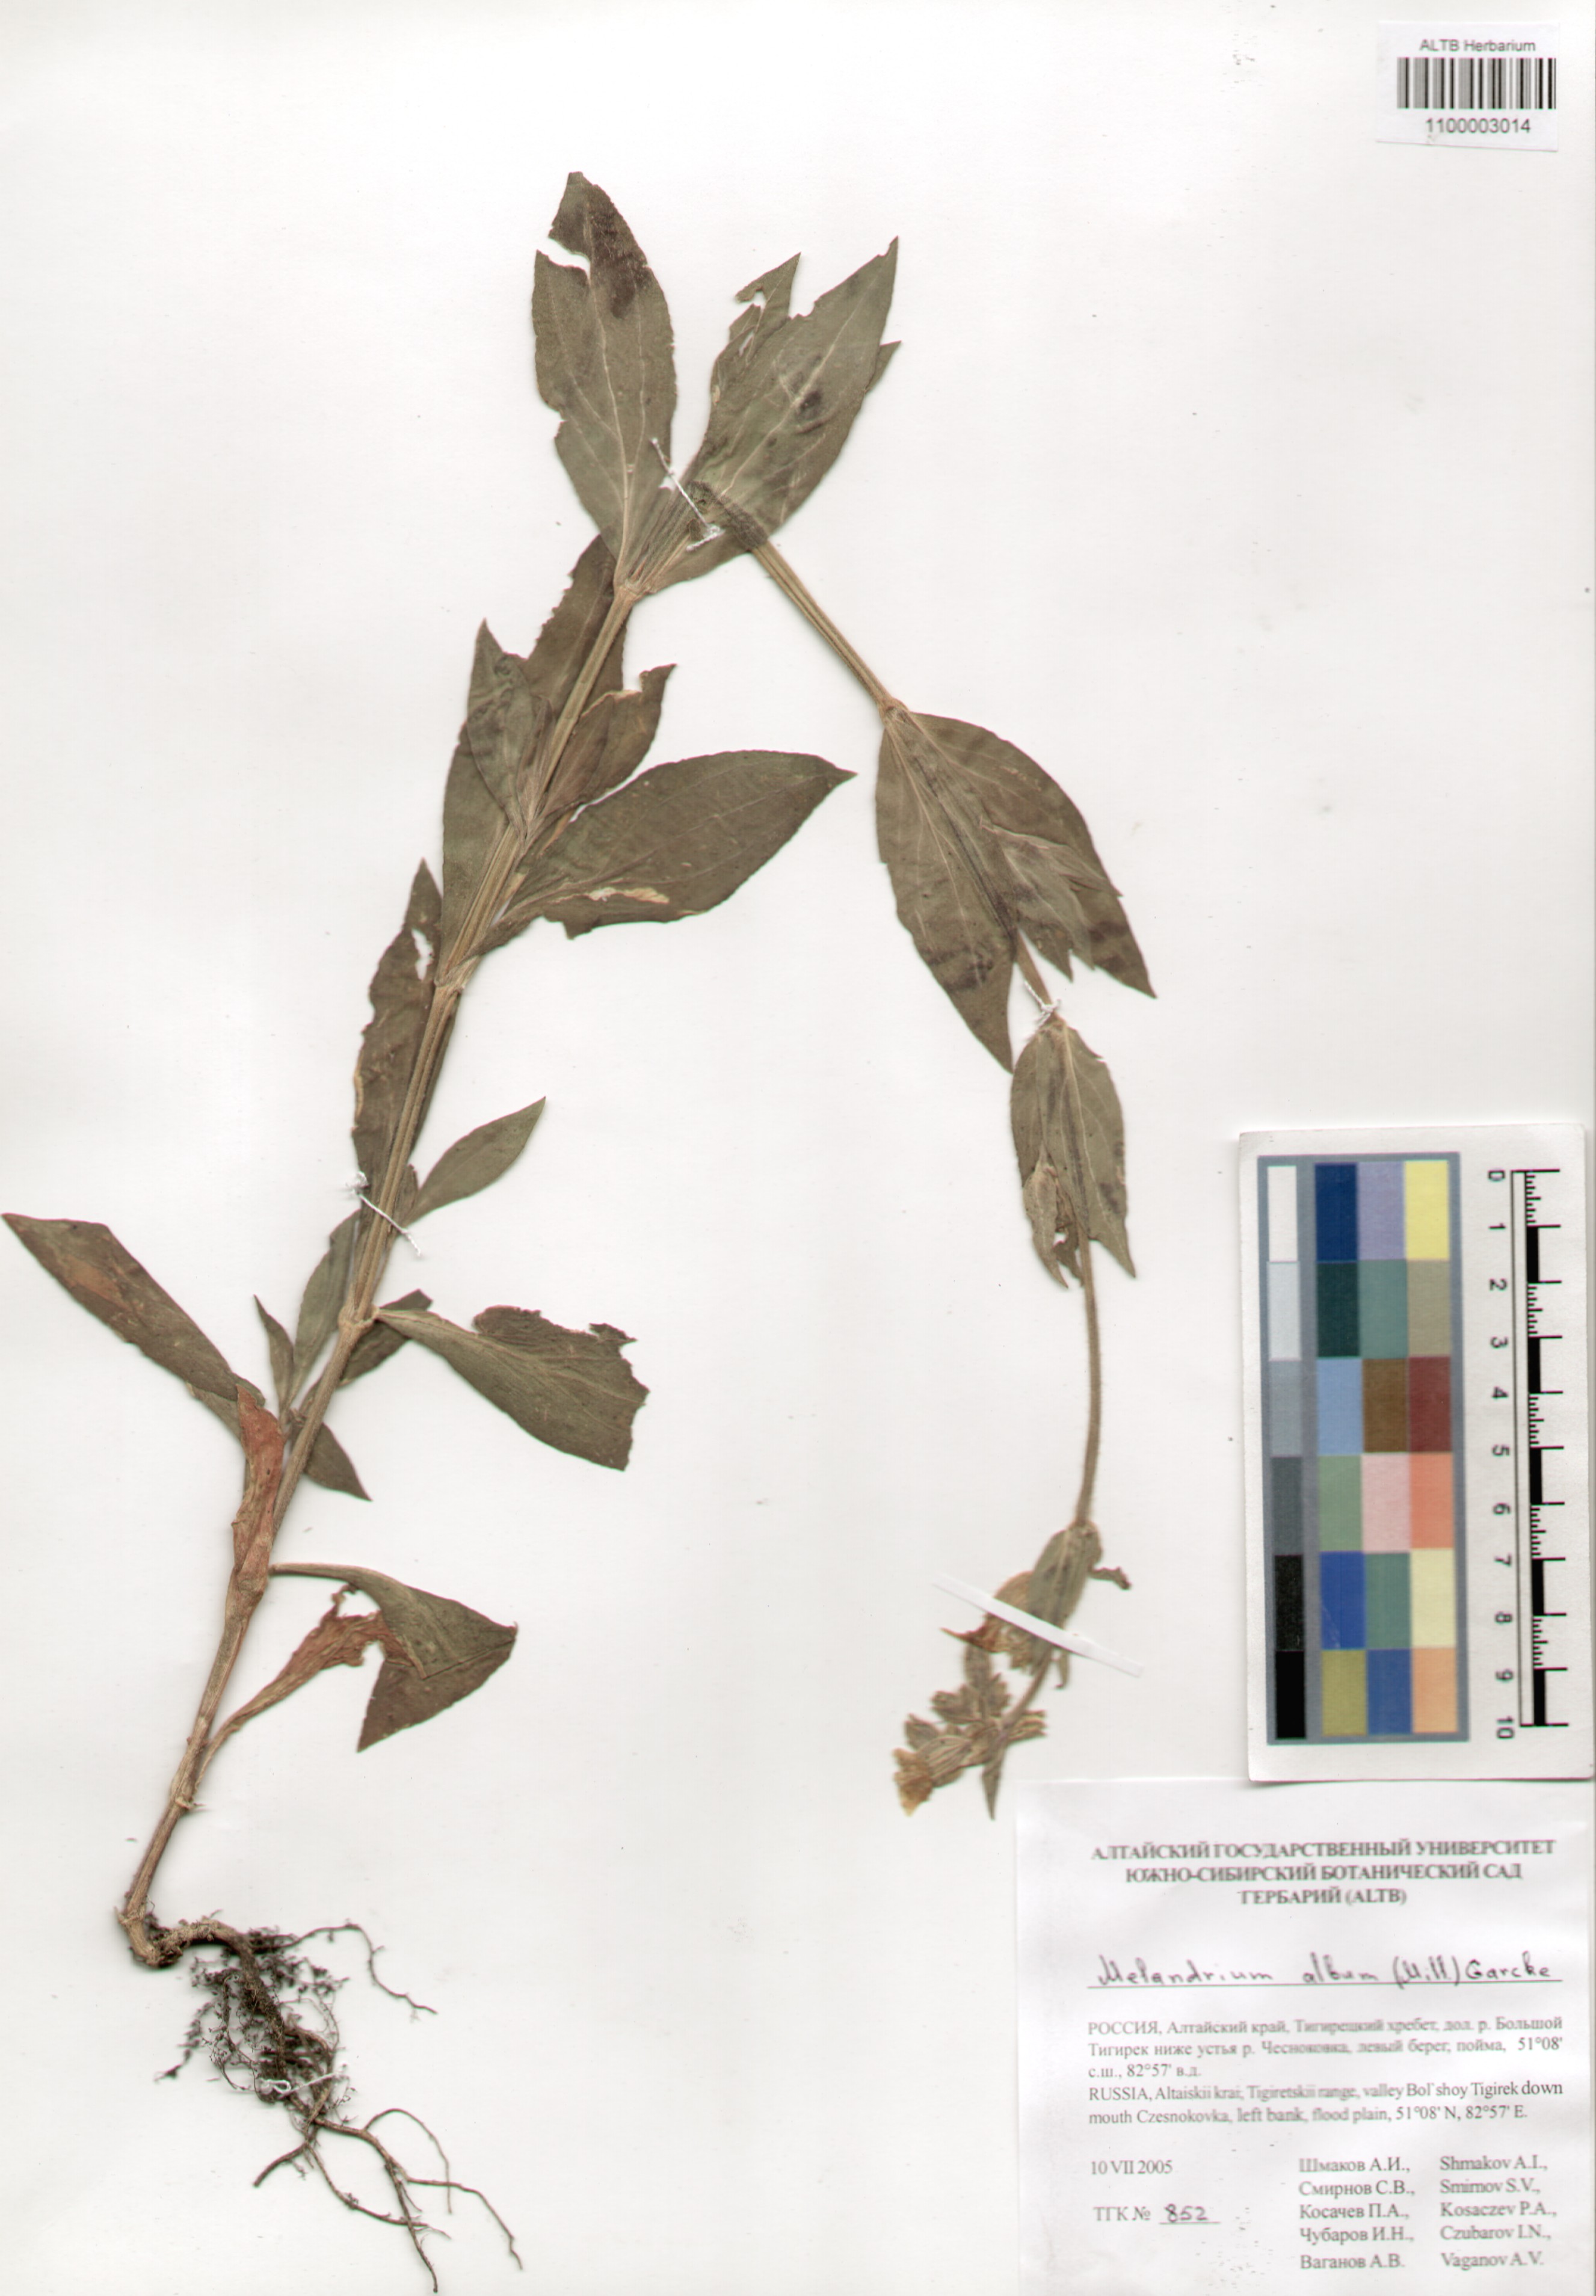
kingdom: Plantae
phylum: Tracheophyta
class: Magnoliopsida
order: Caryophyllales
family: Caryophyllaceae
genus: Silene
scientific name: Silene latifolia
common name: White campion
